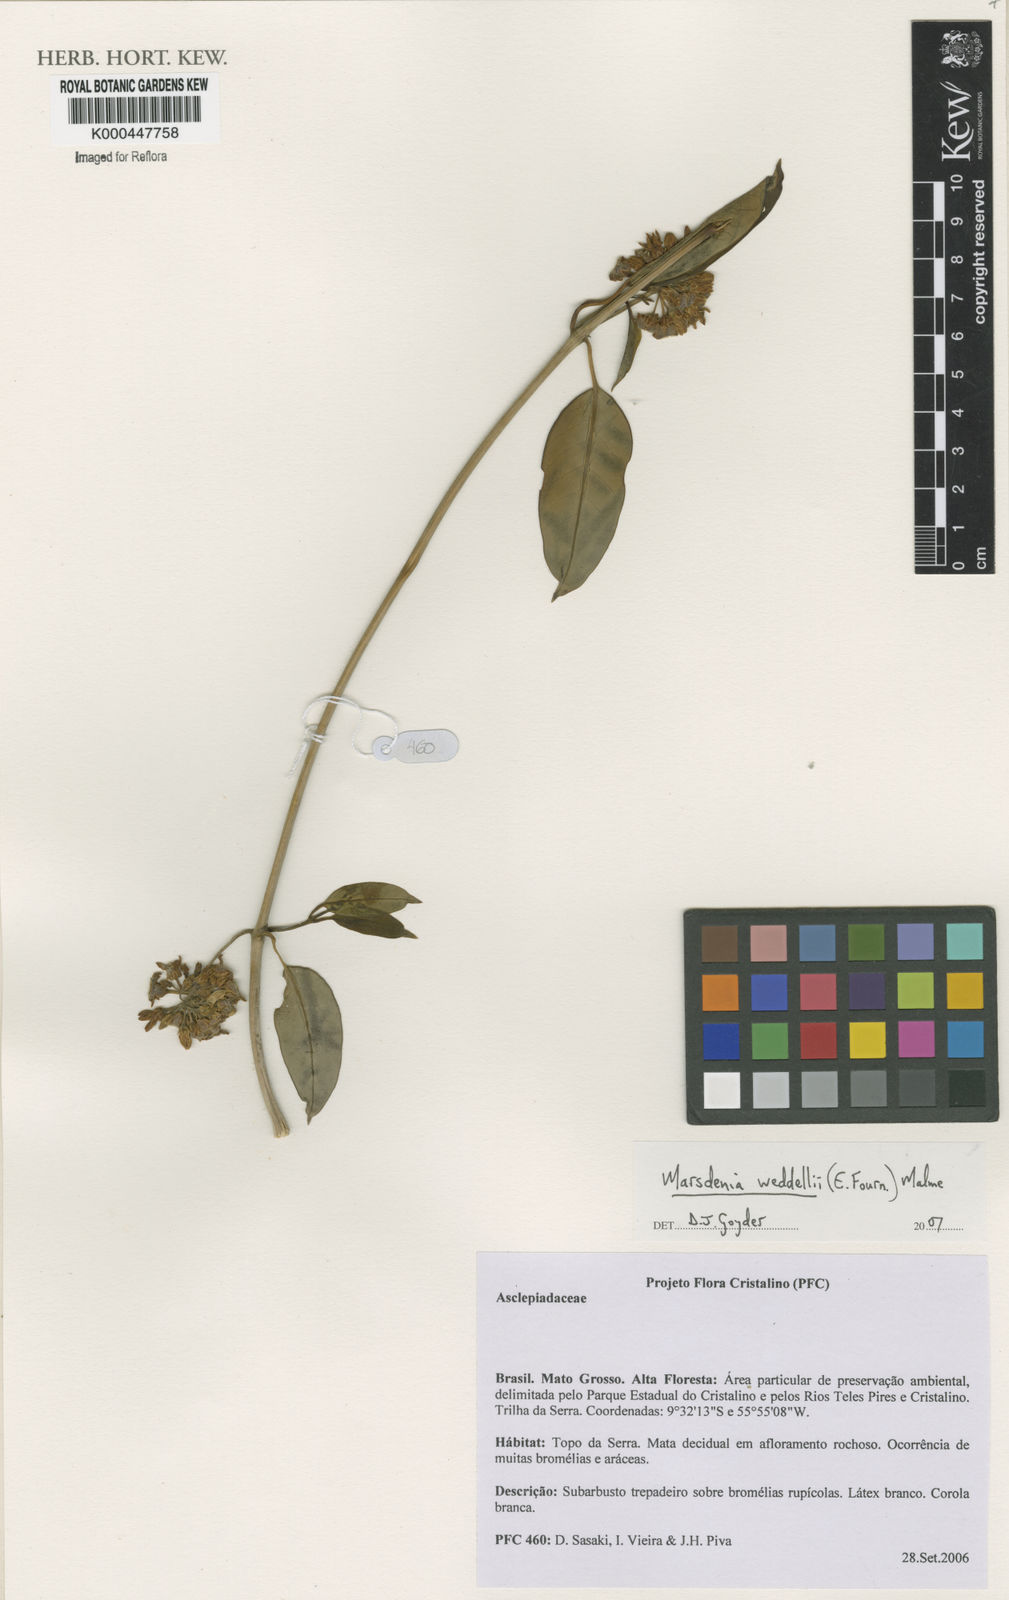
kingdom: Plantae
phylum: Tracheophyta
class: Magnoliopsida
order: Gentianales
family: Apocynaceae
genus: Ruehssia
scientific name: Ruehssia weddellii
